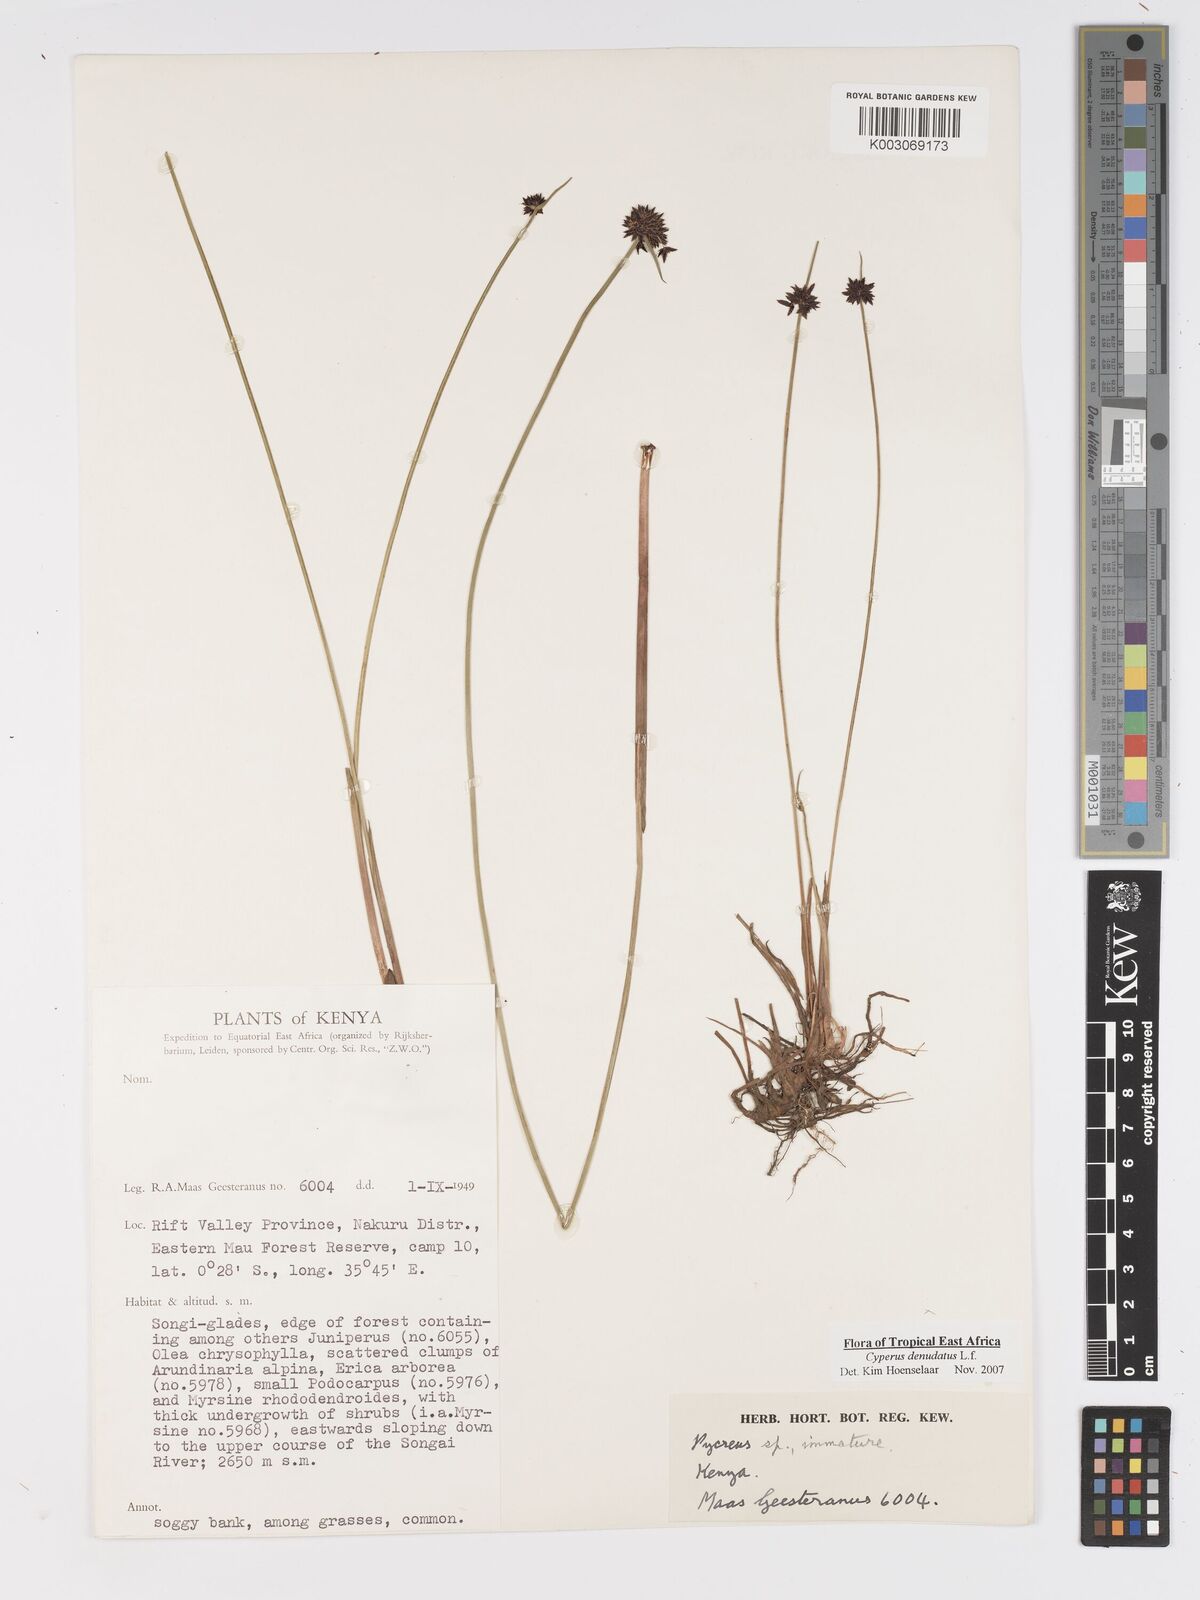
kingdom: Plantae
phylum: Tracheophyta
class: Liliopsida
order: Poales
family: Cyperaceae
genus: Cyperus
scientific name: Cyperus platycaulis
